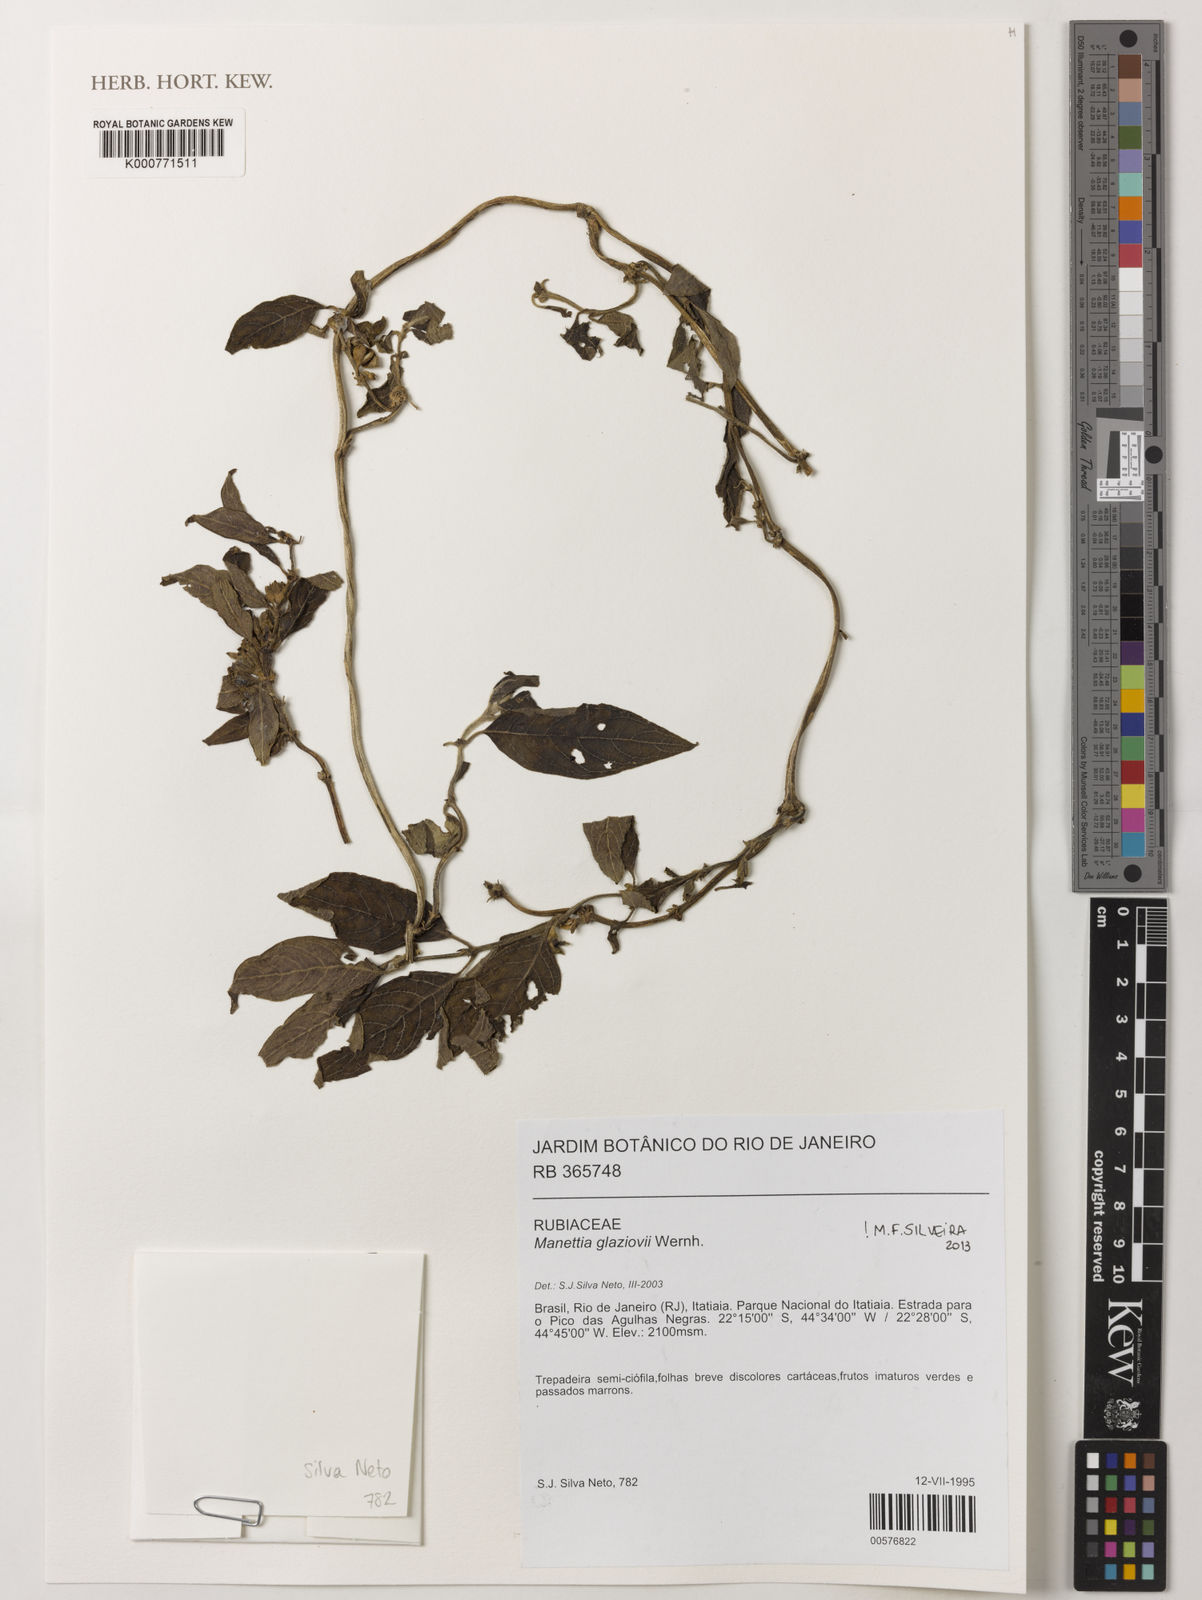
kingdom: Plantae
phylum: Tracheophyta
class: Magnoliopsida
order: Gentianales
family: Rubiaceae
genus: Manettia
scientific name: Manettia glaziovii
